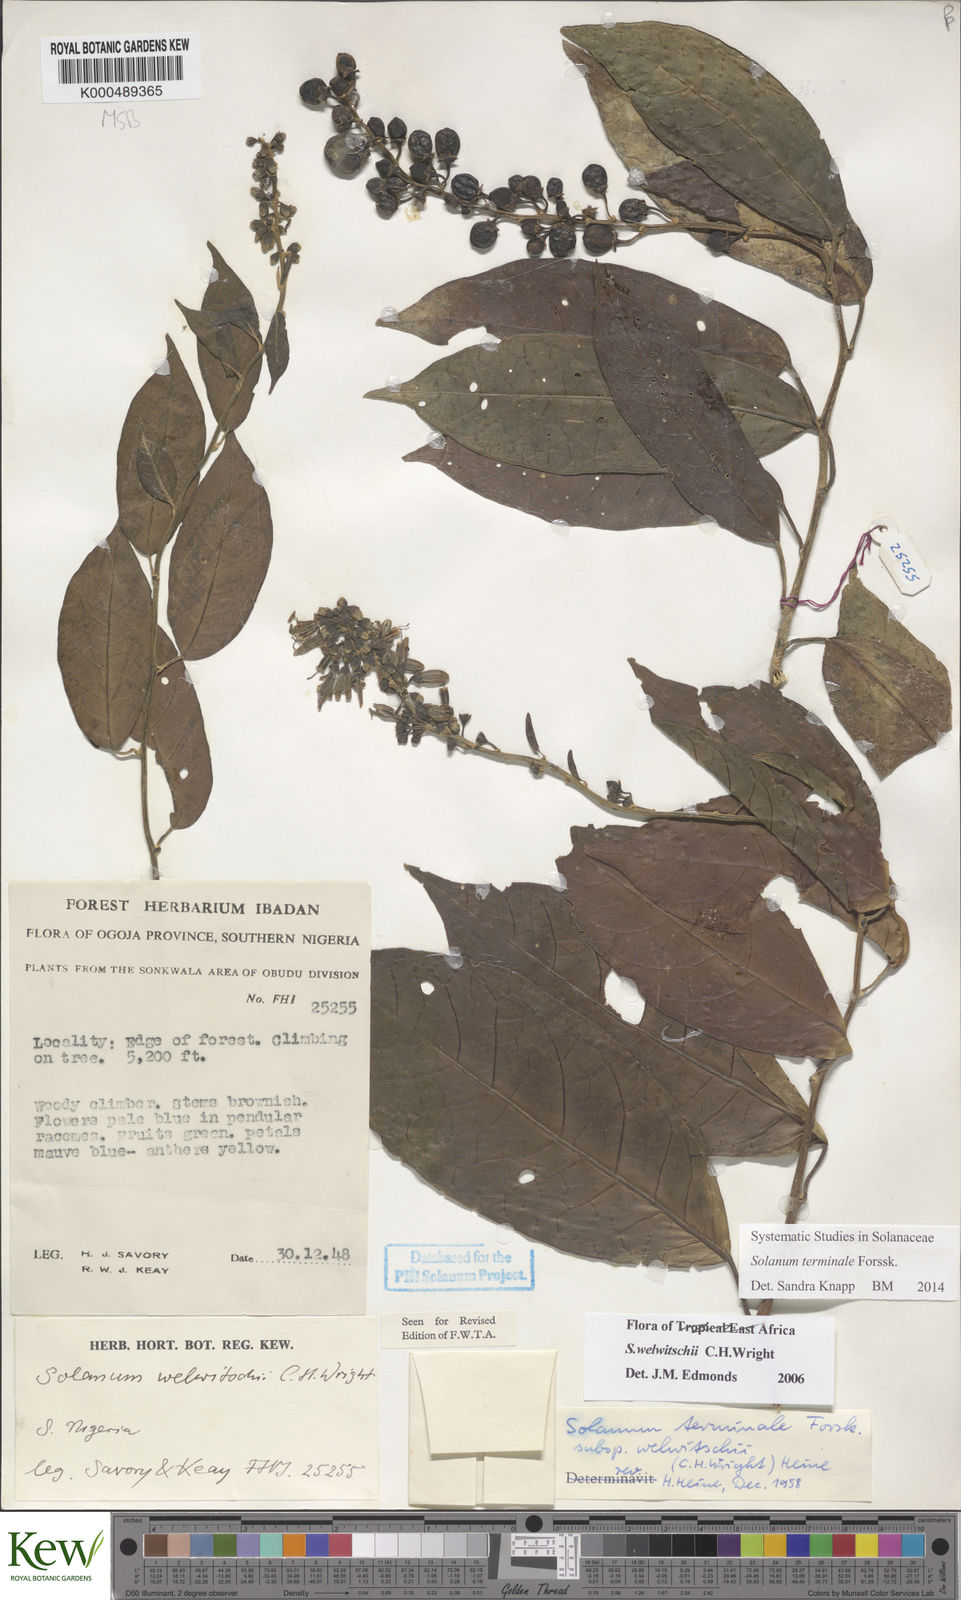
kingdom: Plantae
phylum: Tracheophyta
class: Magnoliopsida
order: Solanales
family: Solanaceae
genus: Solanum
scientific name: Solanum terminale
